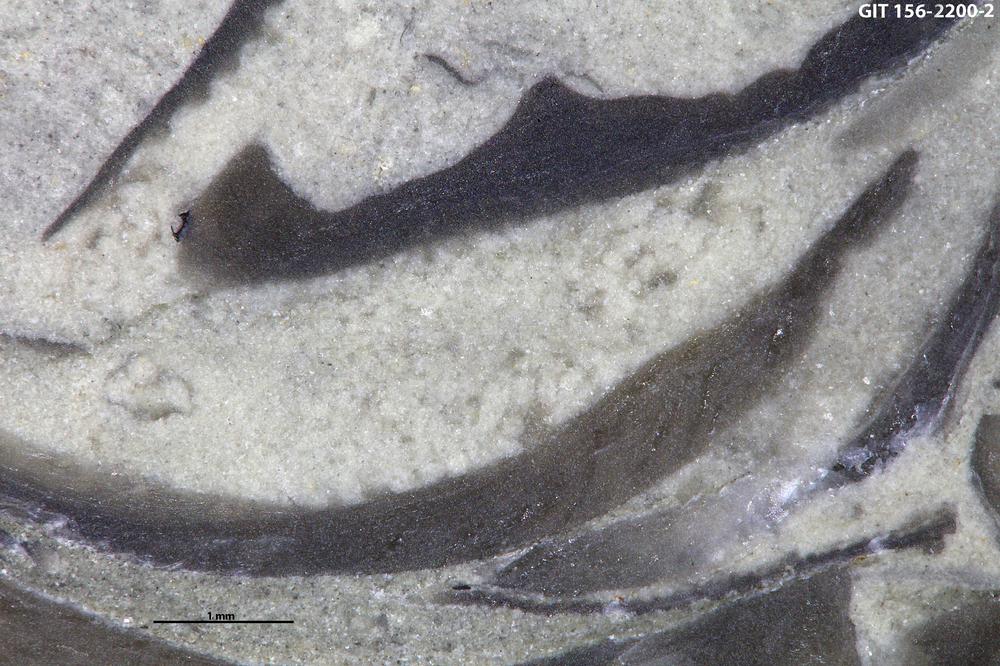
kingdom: Animalia
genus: Tubularina
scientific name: Tubularina
